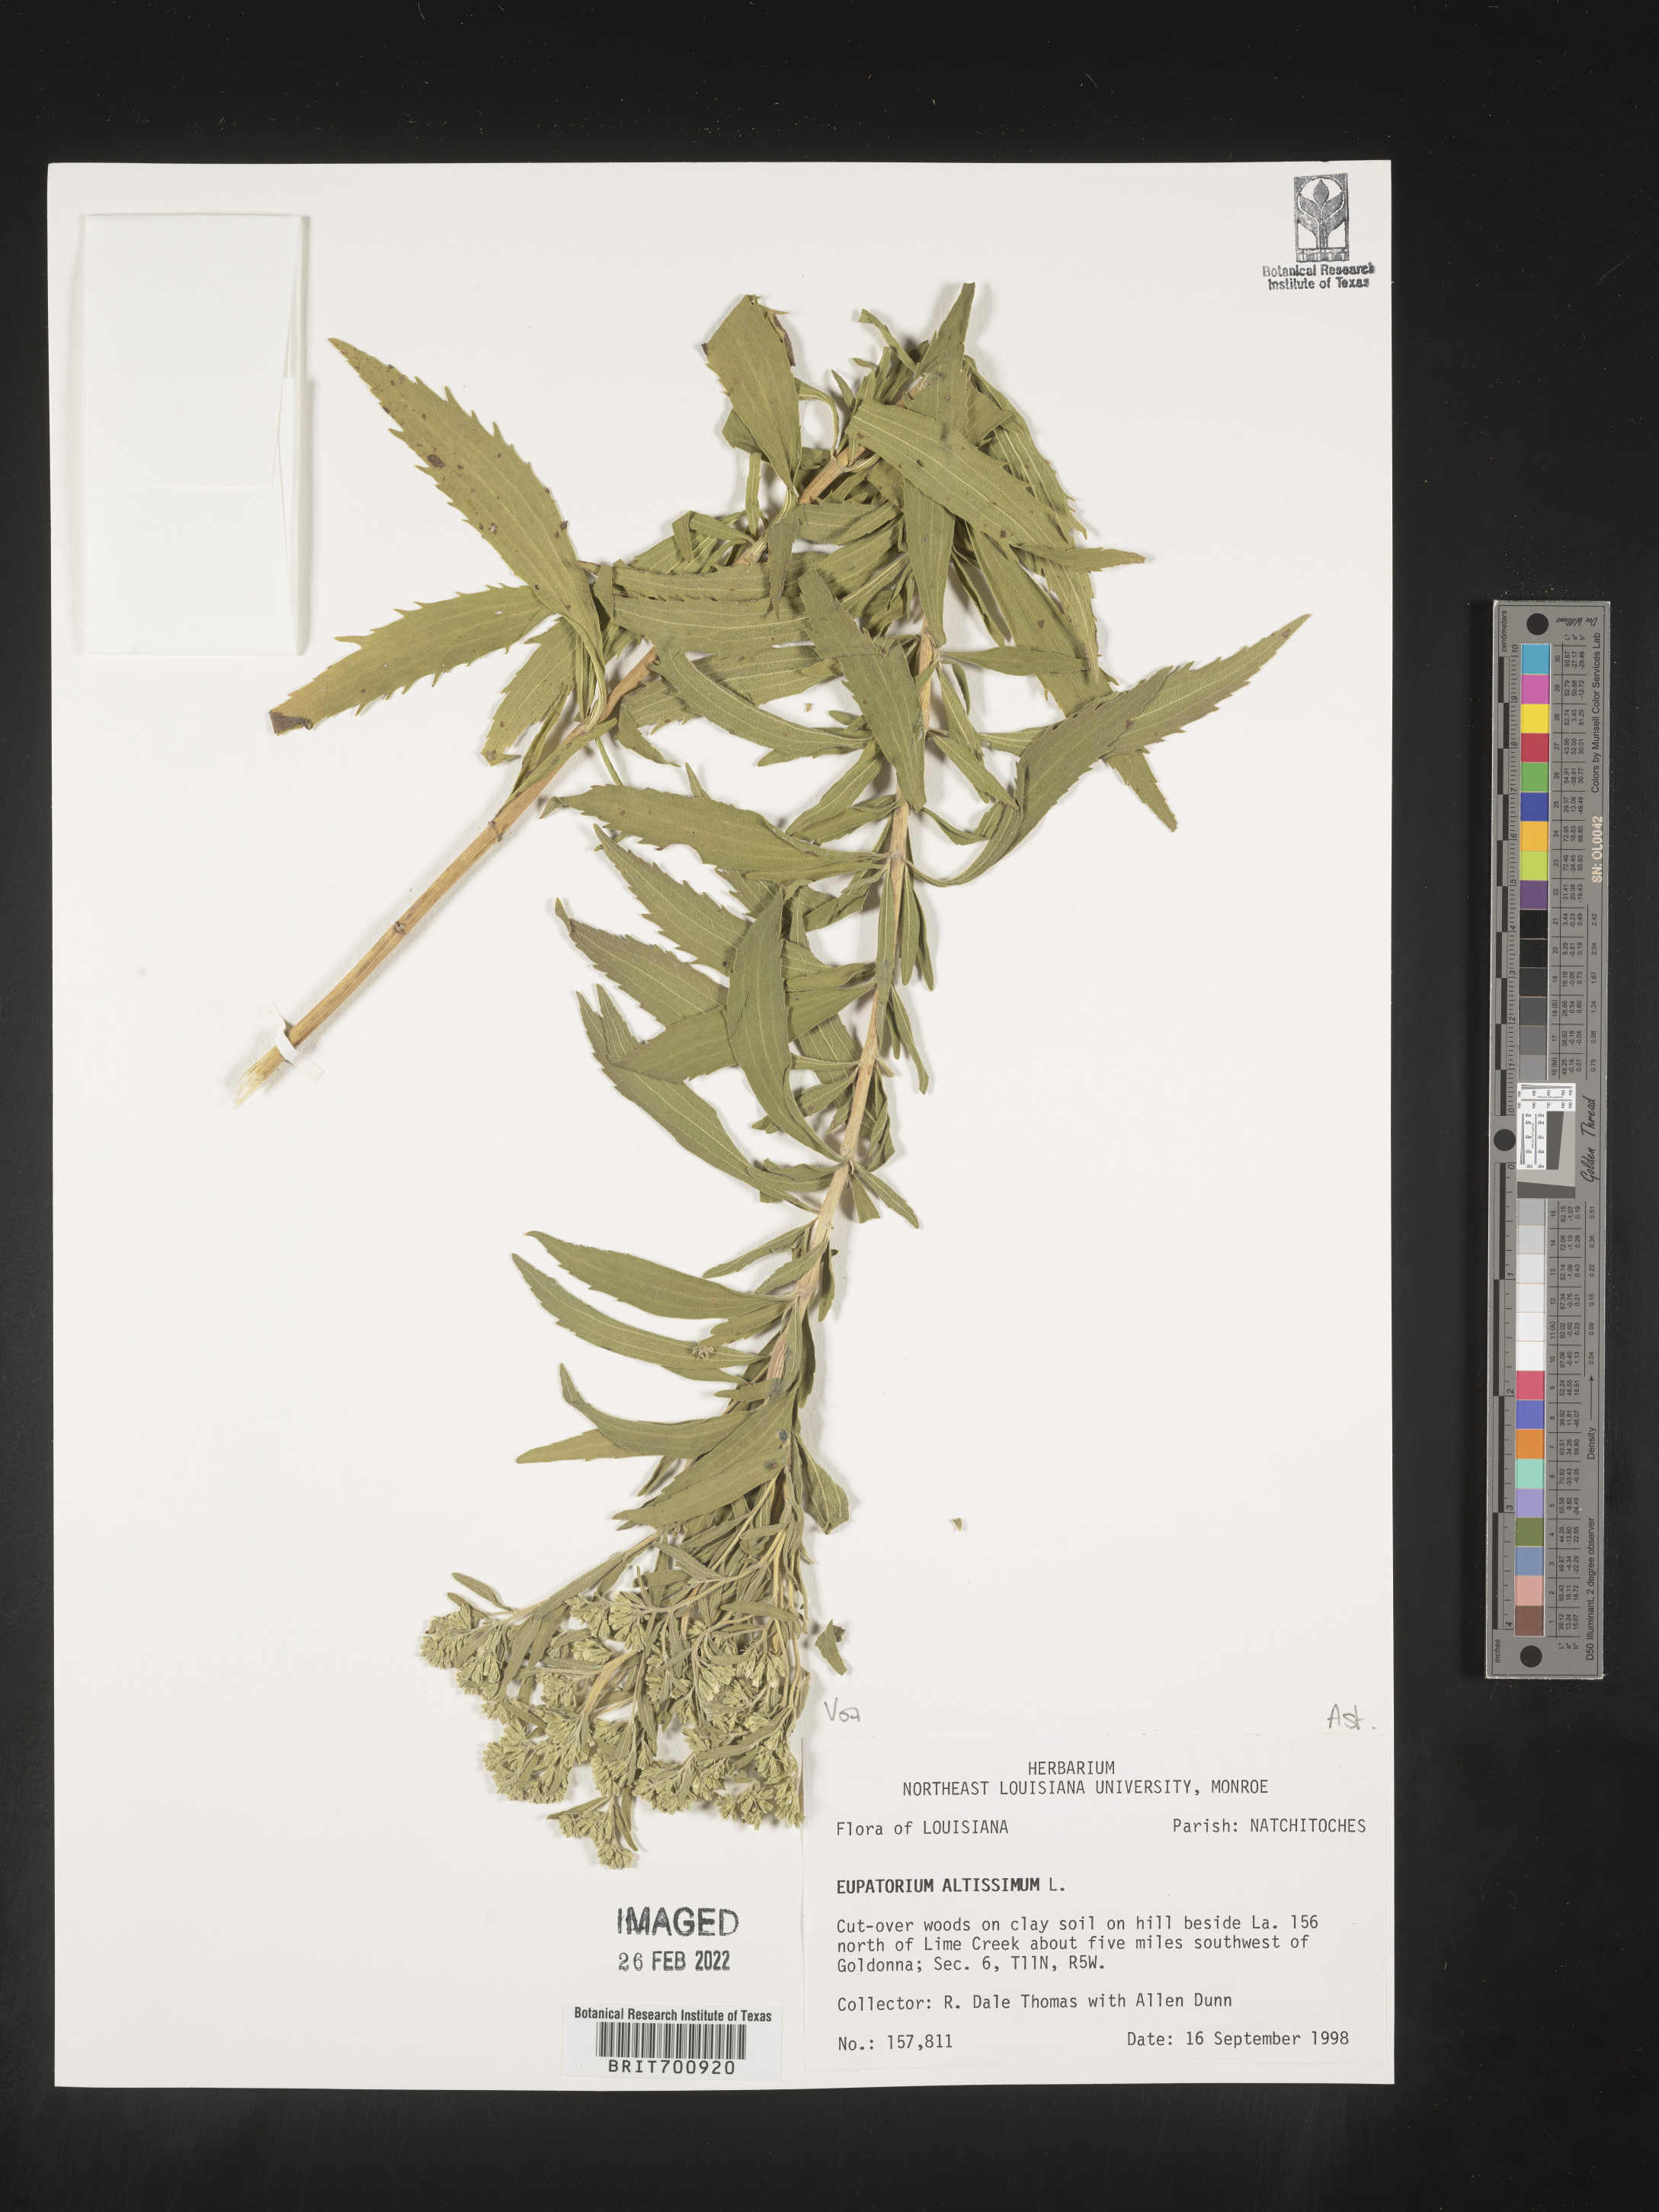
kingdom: Plantae
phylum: Tracheophyta
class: Magnoliopsida
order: Asterales
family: Asteraceae
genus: Eupatorium
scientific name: Eupatorium altissimum
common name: Tall thoroughwort
